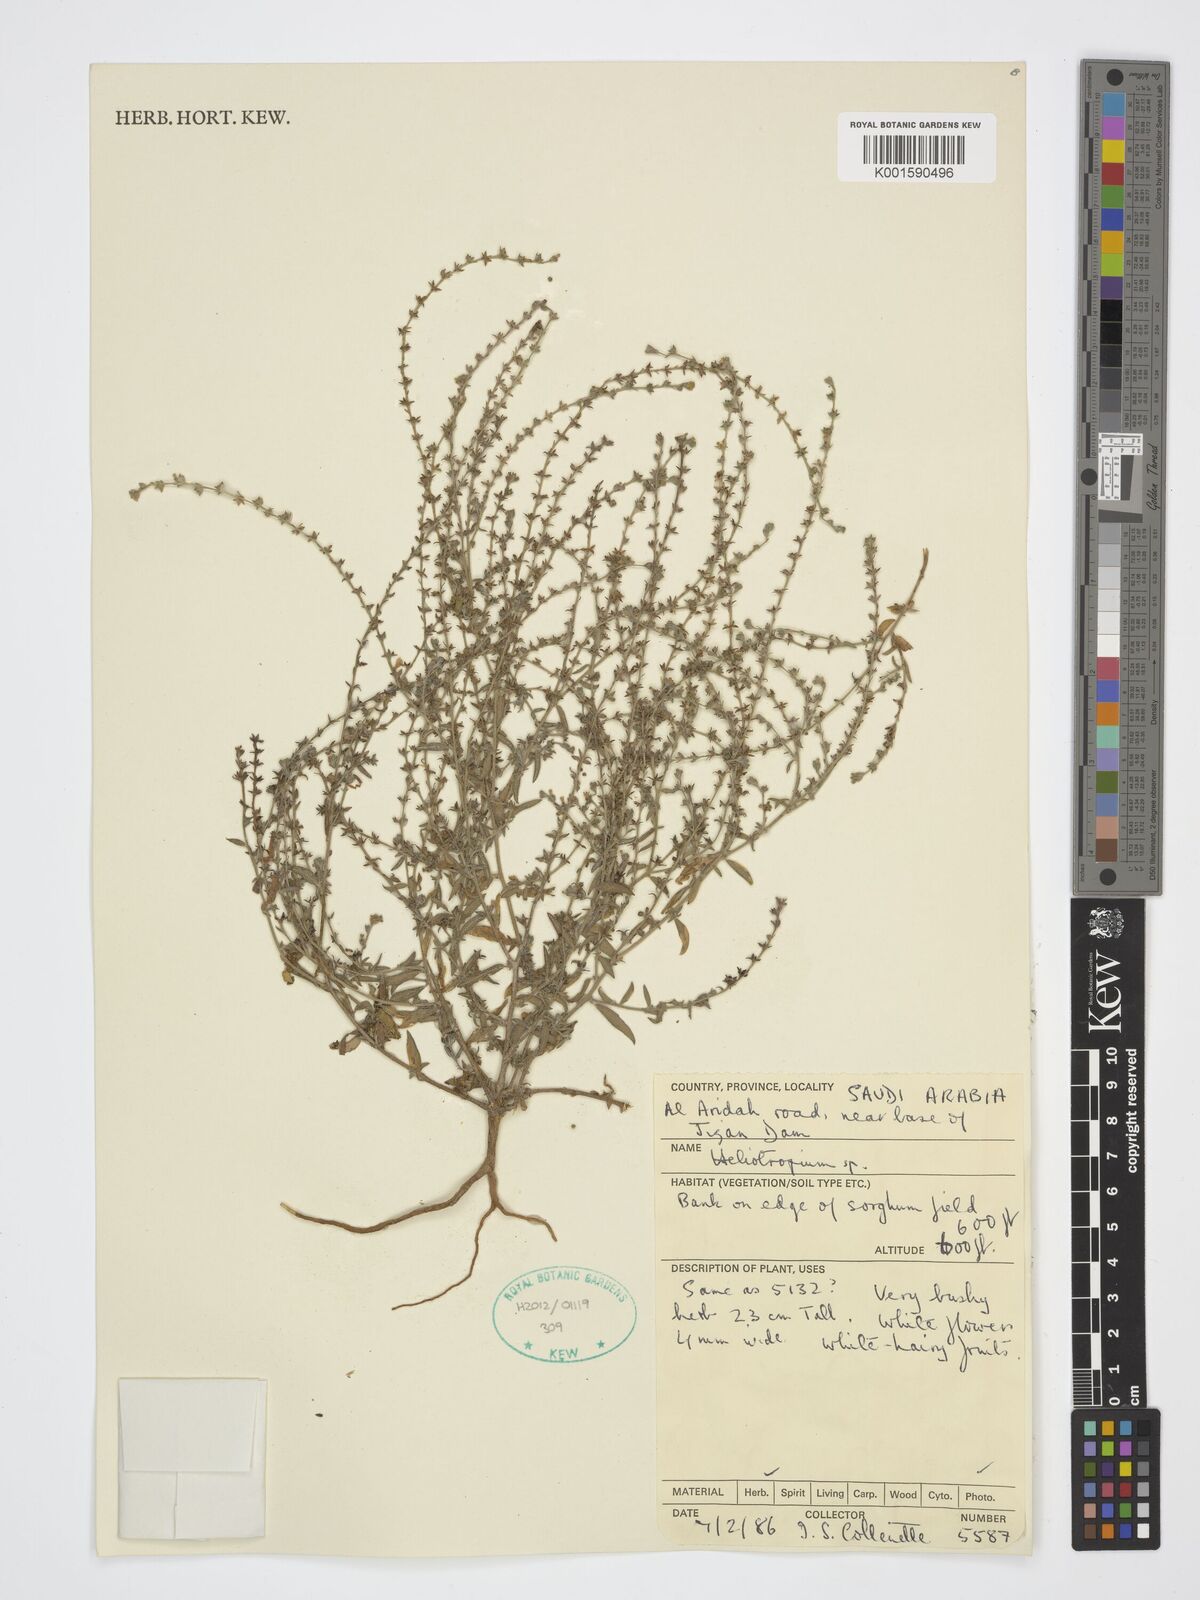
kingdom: Plantae
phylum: Tracheophyta
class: Magnoliopsida
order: Boraginales
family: Heliotropiaceae
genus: Heliotropium
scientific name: Heliotropium
